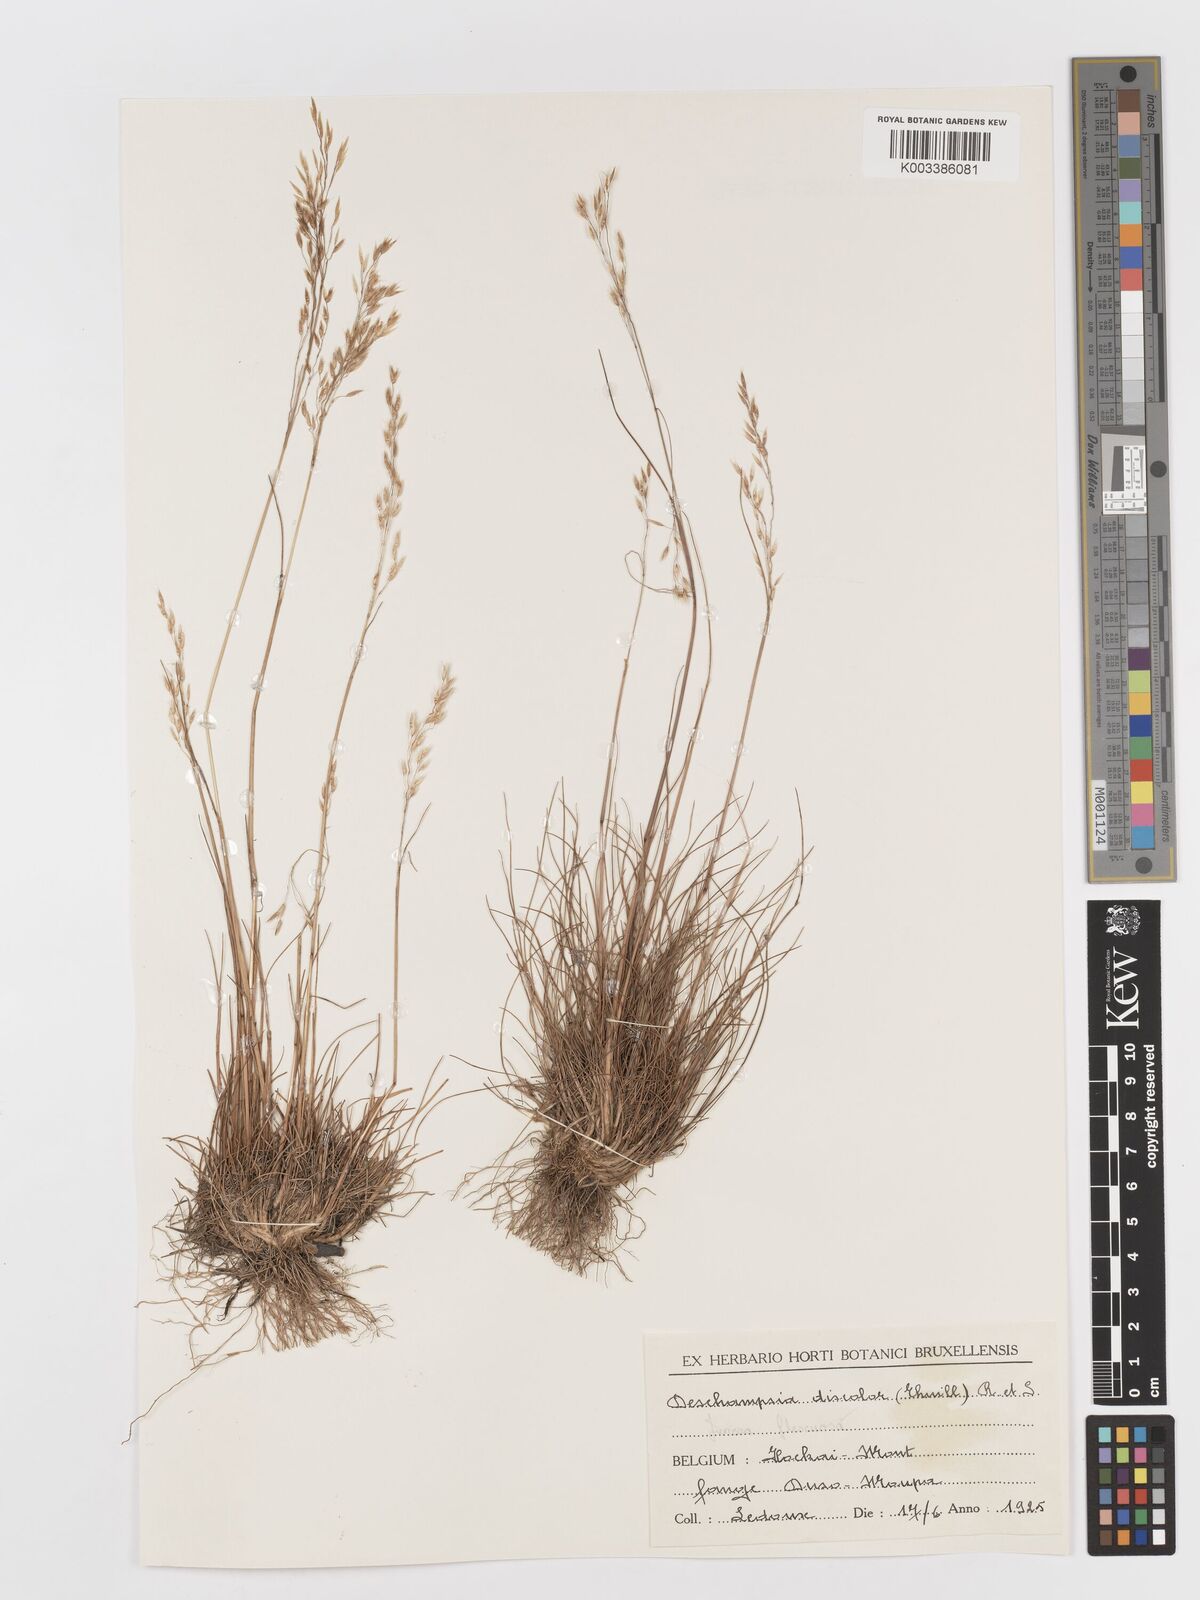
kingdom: Plantae
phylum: Tracheophyta
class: Liliopsida
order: Poales
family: Poaceae
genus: Avenella
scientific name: Avenella flexuosa
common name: Wavy hairgrass
